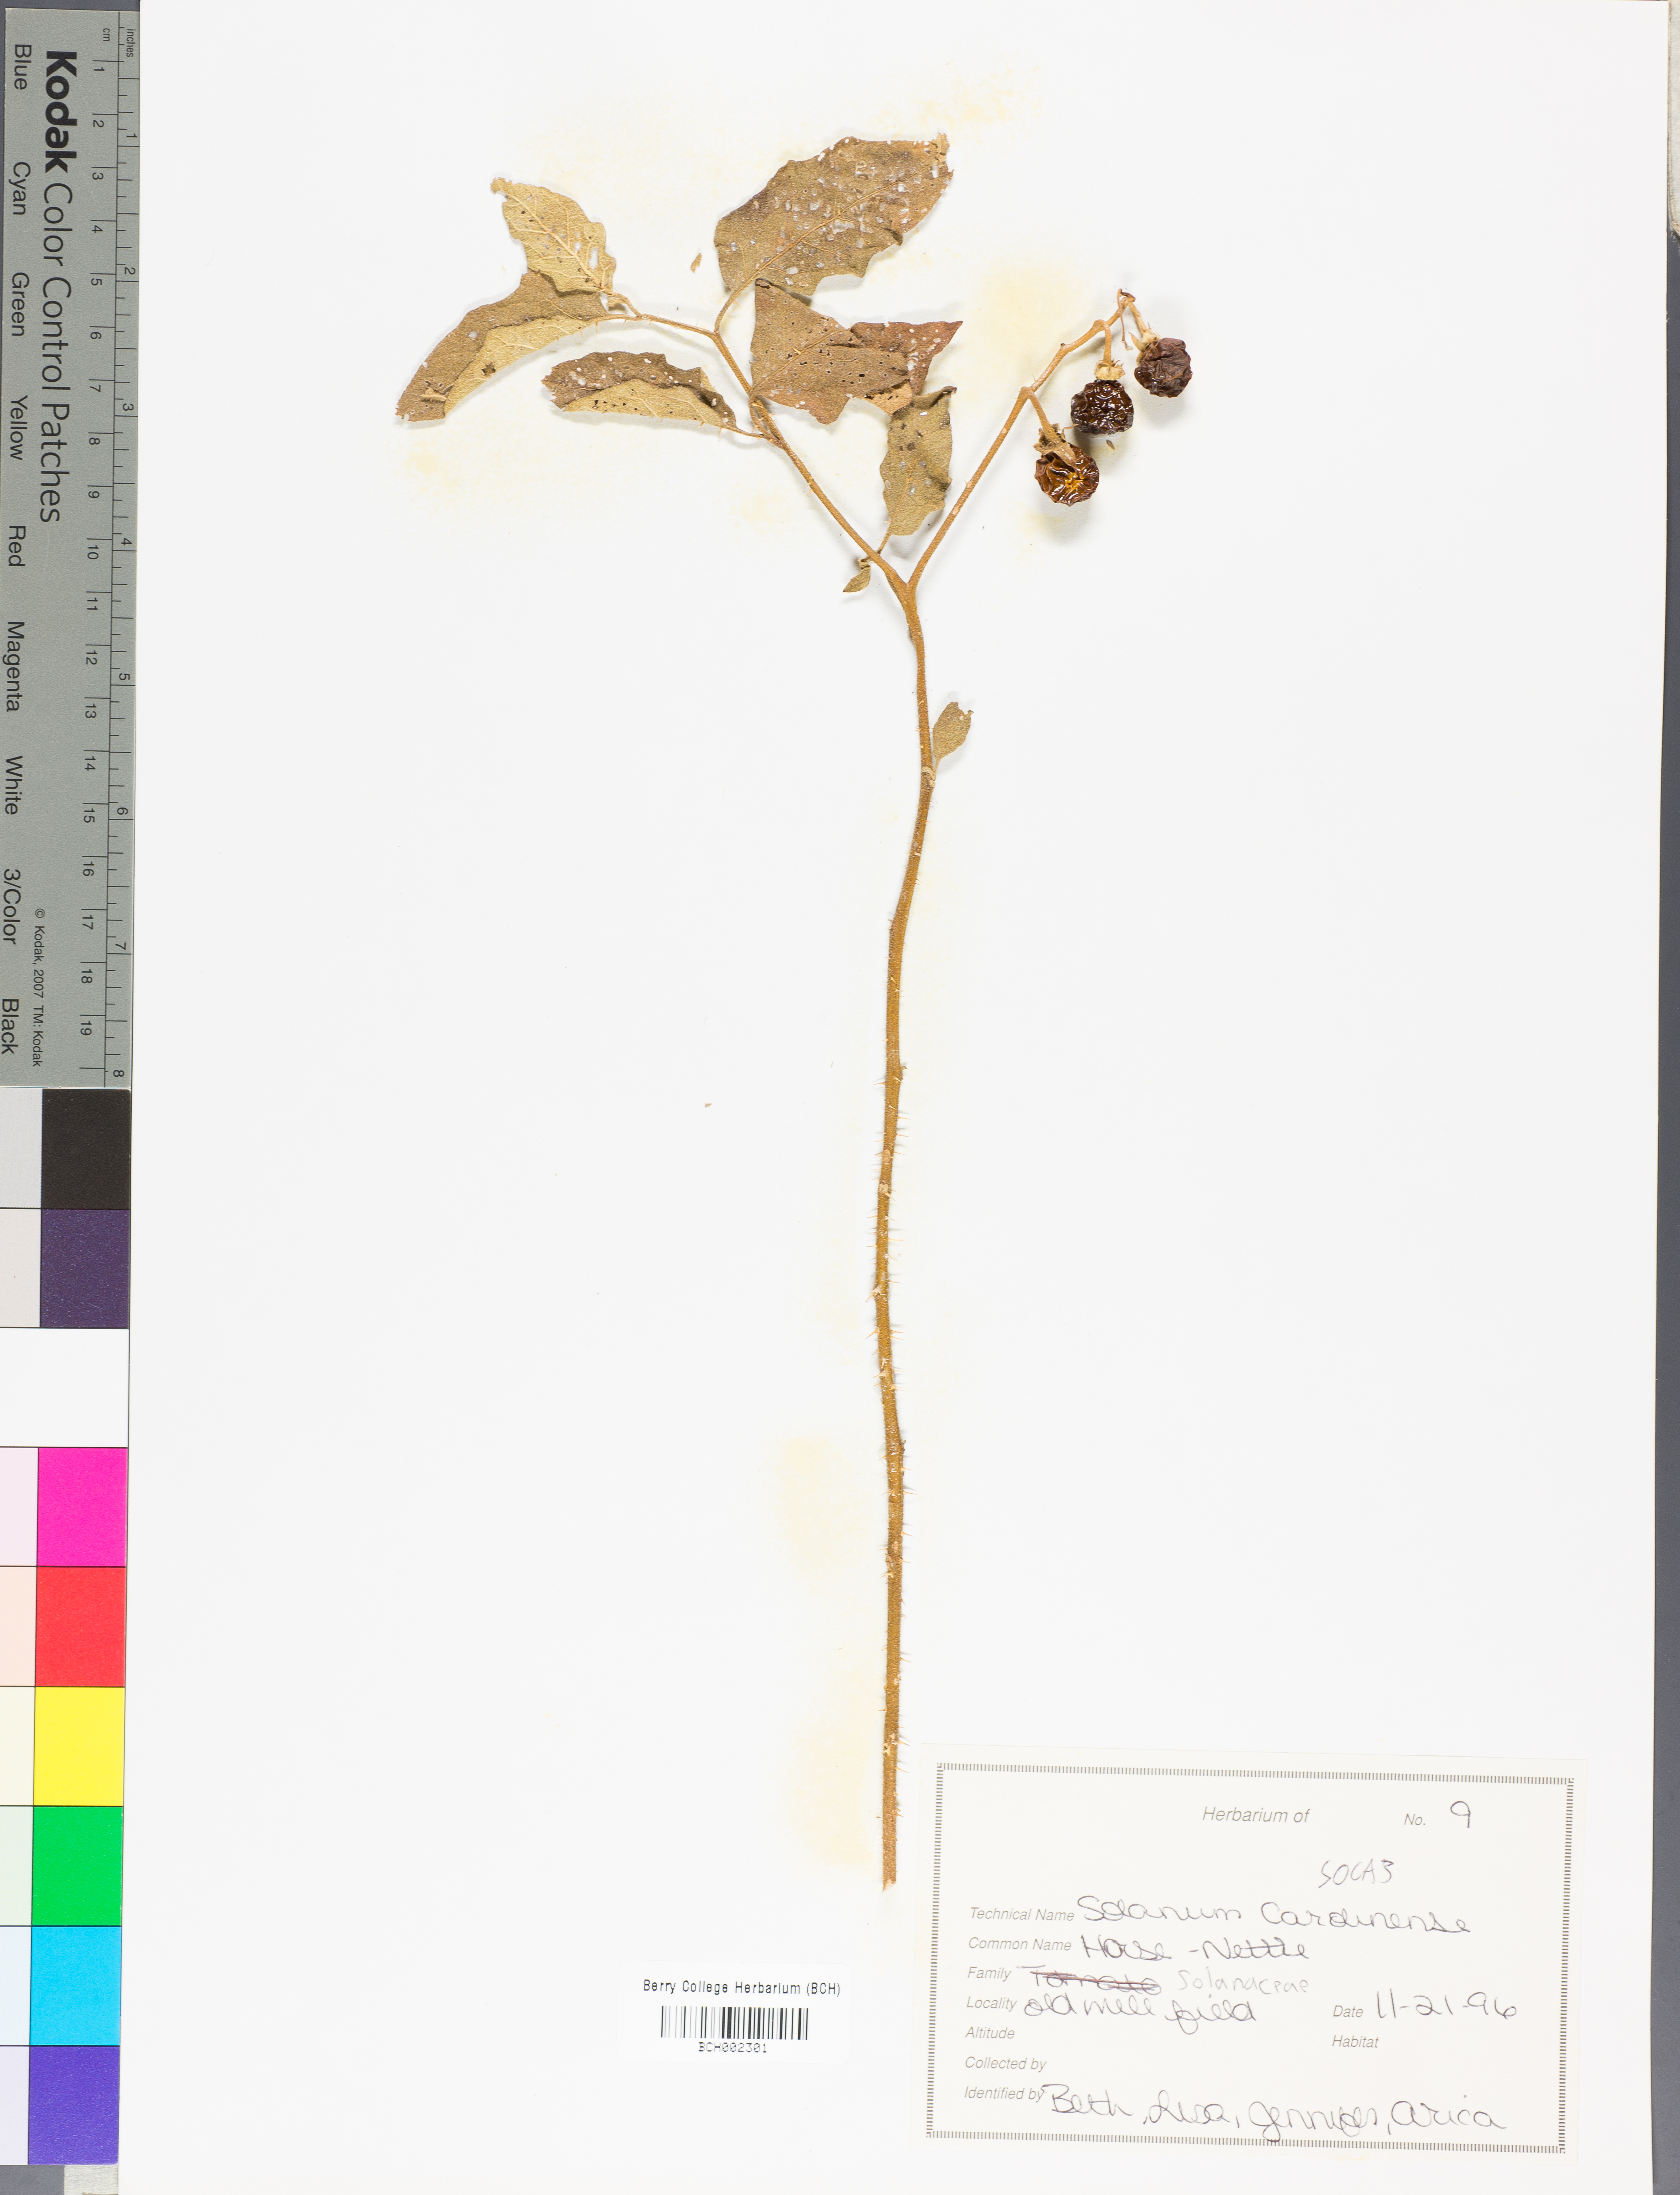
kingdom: Plantae
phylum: Tracheophyta
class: Magnoliopsida
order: Solanales
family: Solanaceae
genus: Solanum
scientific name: Solanum carolinense
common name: Horse-nettle
